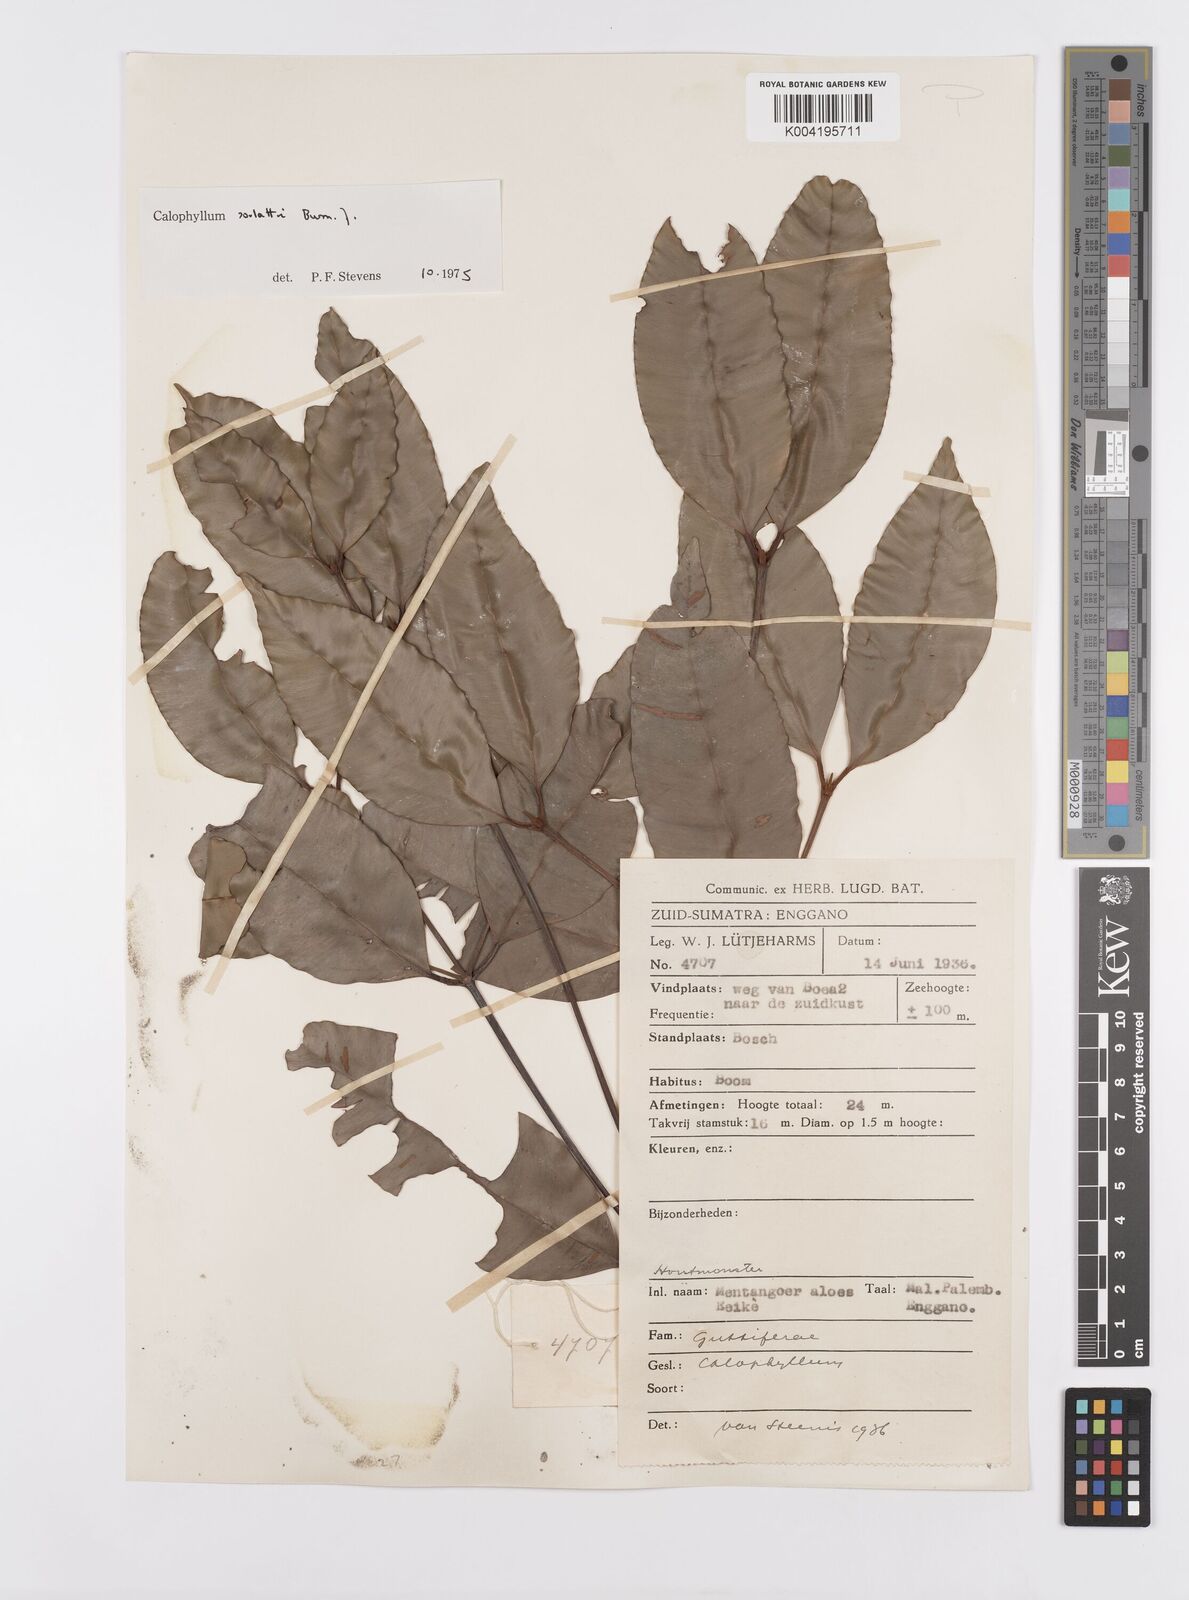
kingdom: Plantae
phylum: Tracheophyta
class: Magnoliopsida
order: Malpighiales
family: Calophyllaceae
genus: Calophyllum
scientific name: Calophyllum soulattri
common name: Bitangoor boonot
